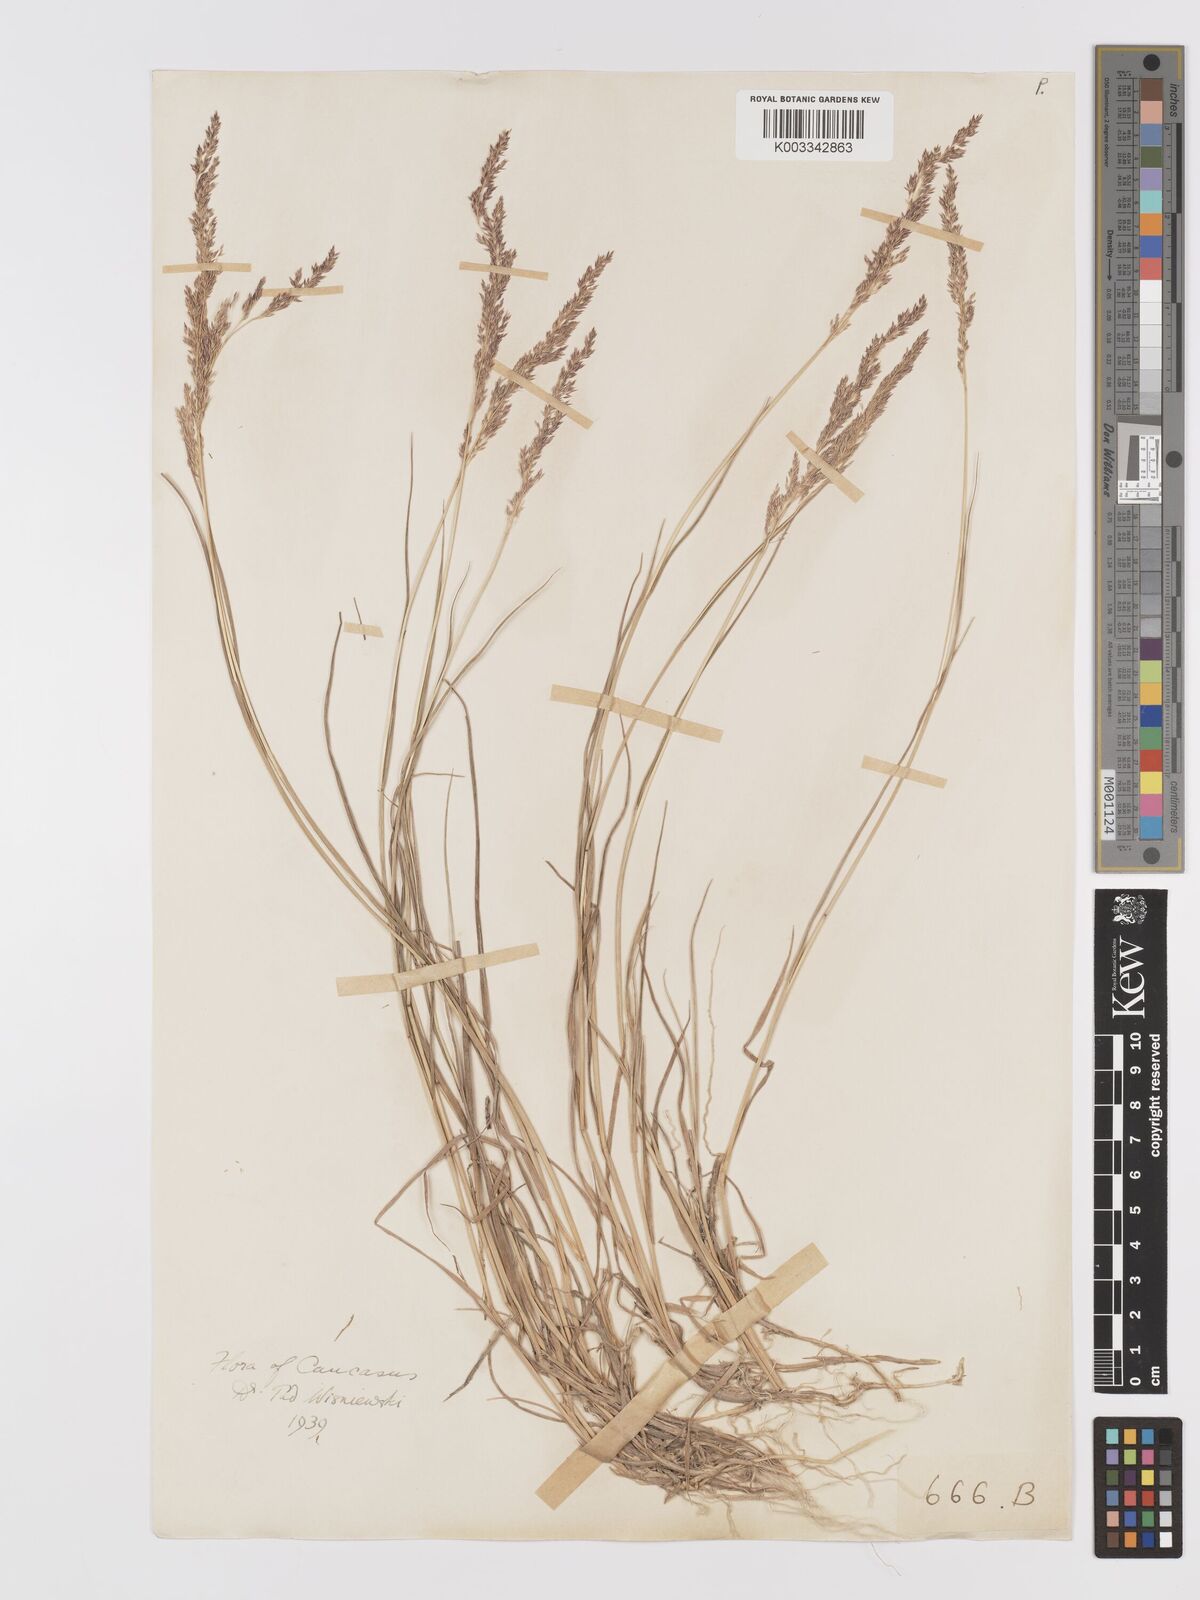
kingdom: Plantae
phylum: Tracheophyta
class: Liliopsida
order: Poales
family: Poaceae
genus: Agrostis
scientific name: Agrostis
